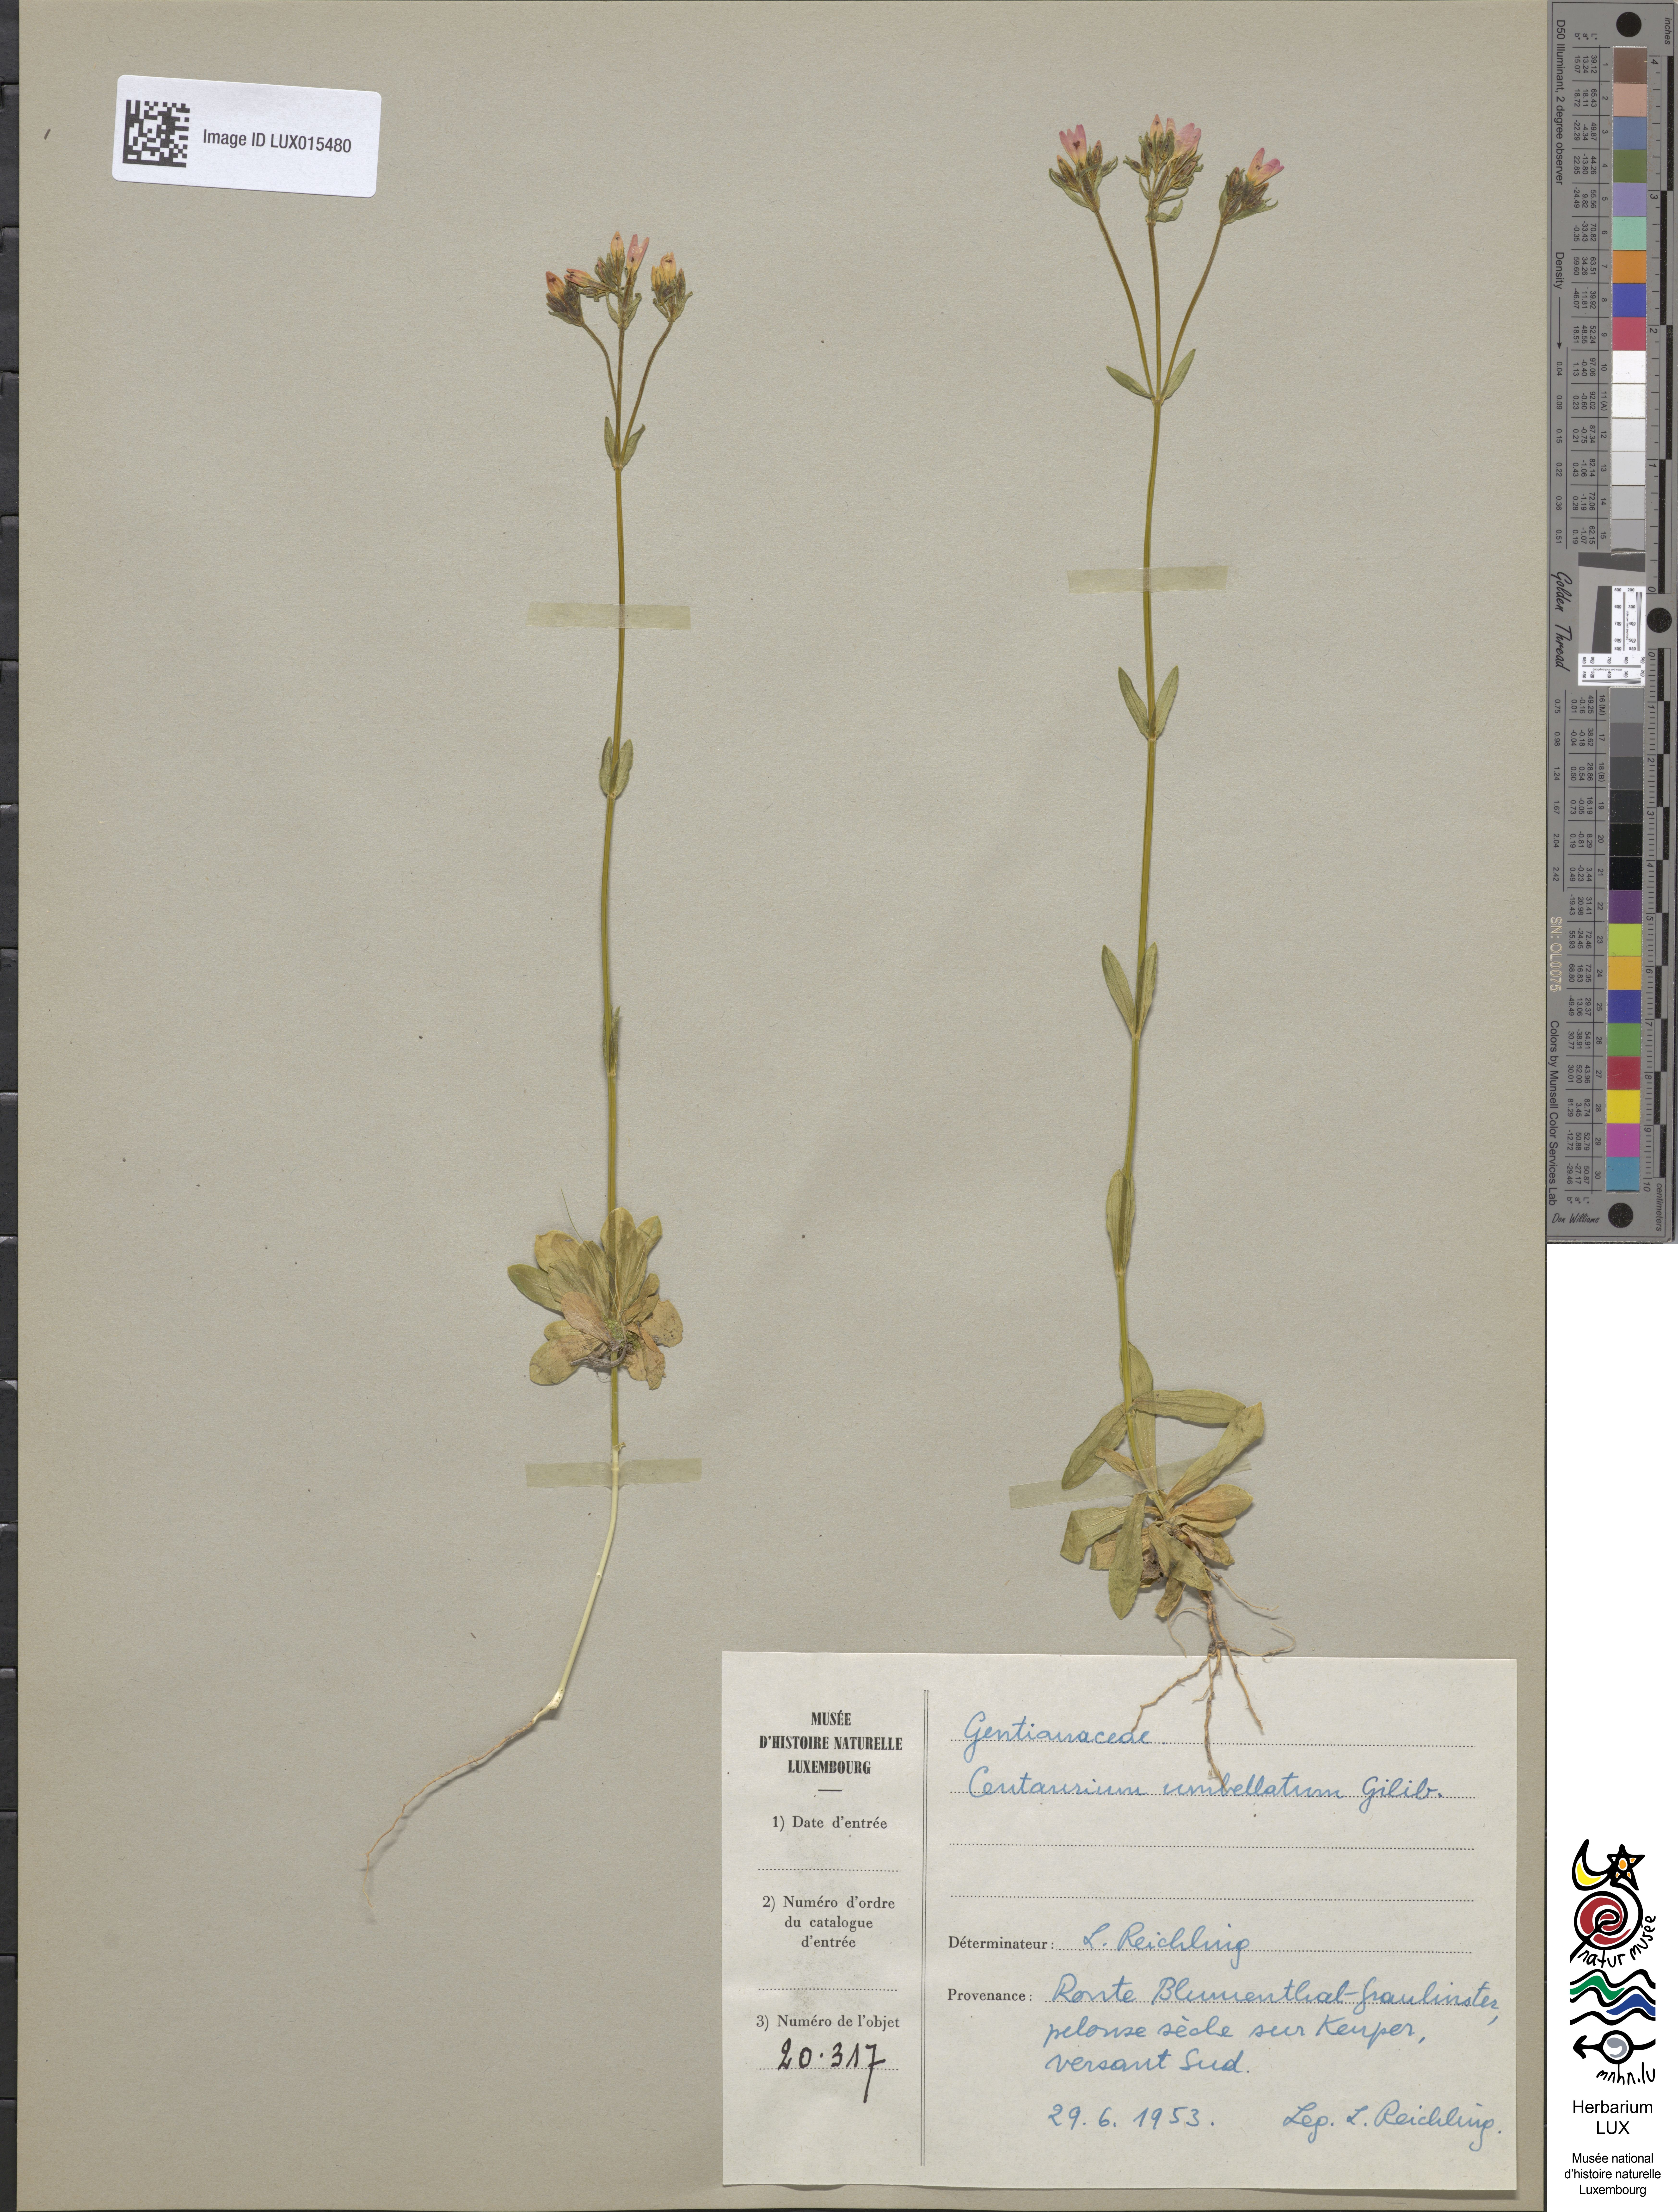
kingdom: Plantae
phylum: Tracheophyta
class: Magnoliopsida
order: Gentianales
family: Gentianaceae
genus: Centaurium
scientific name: Centaurium erythraea
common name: Common centaury
